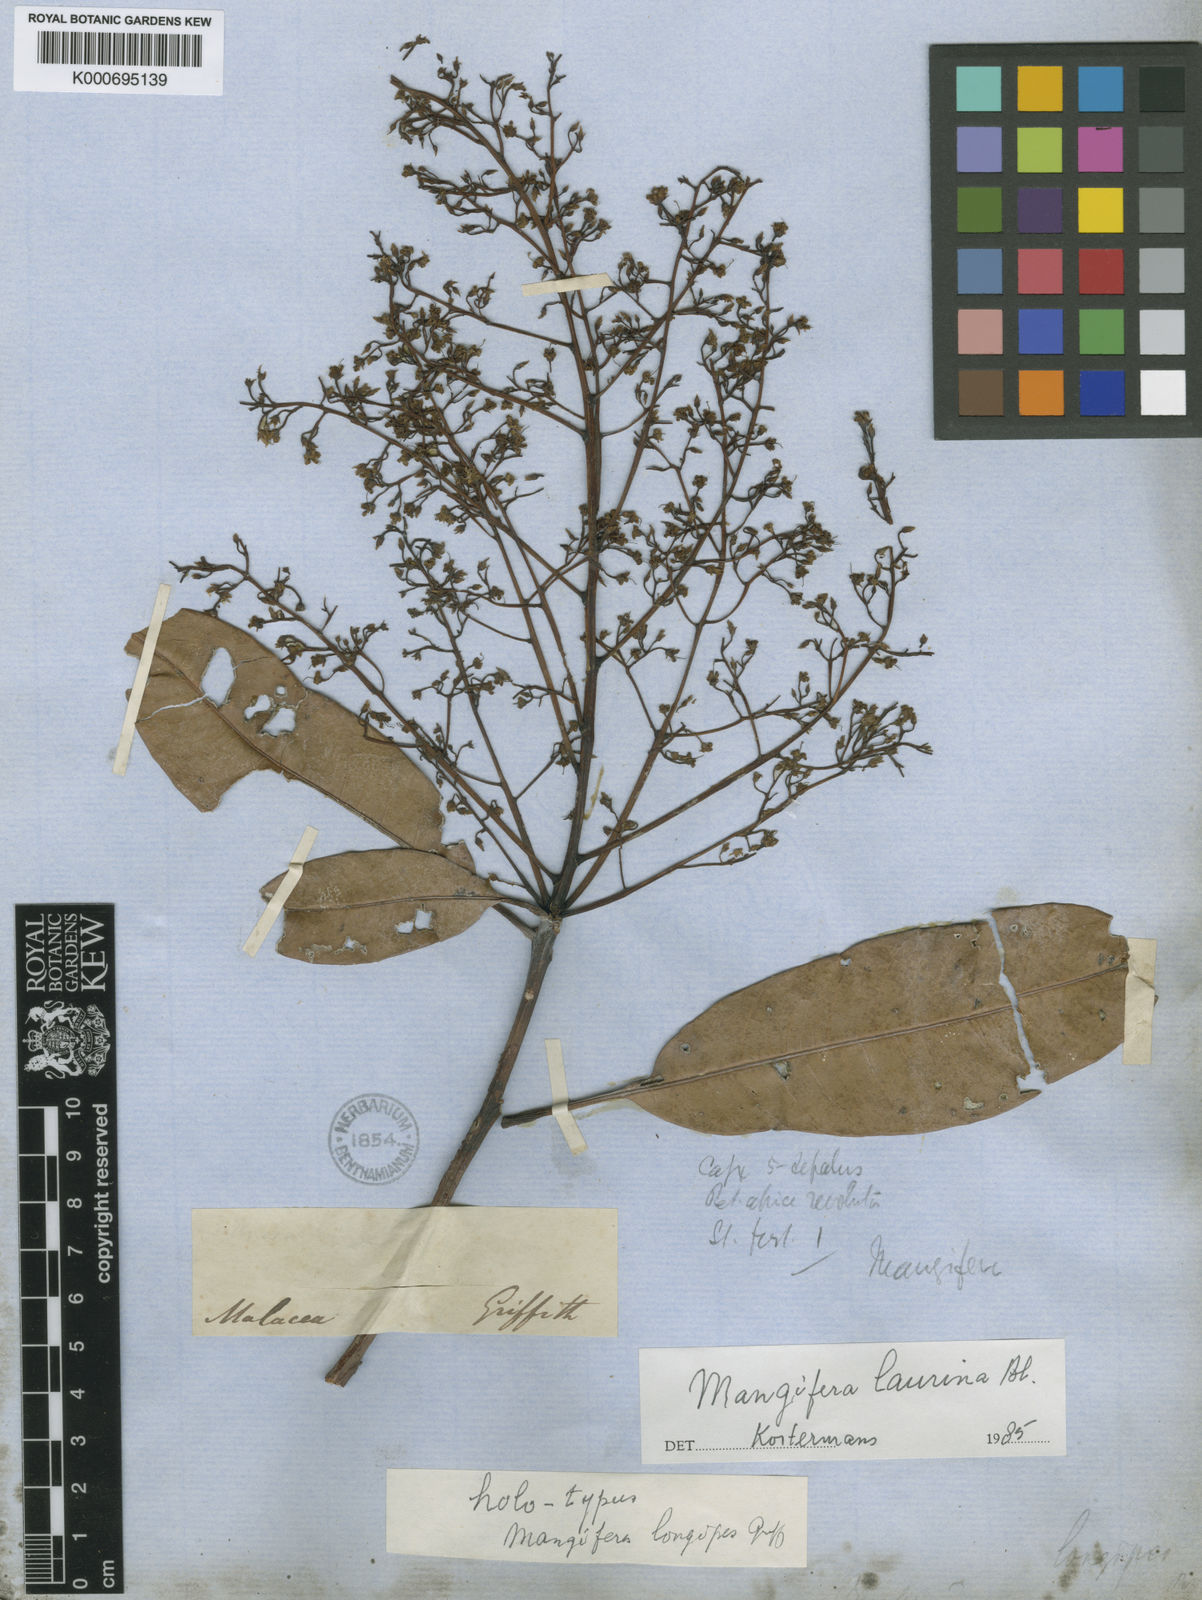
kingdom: Plantae
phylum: Tracheophyta
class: Magnoliopsida
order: Sapindales
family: Anacardiaceae
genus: Mangifera
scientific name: Mangifera laurina
